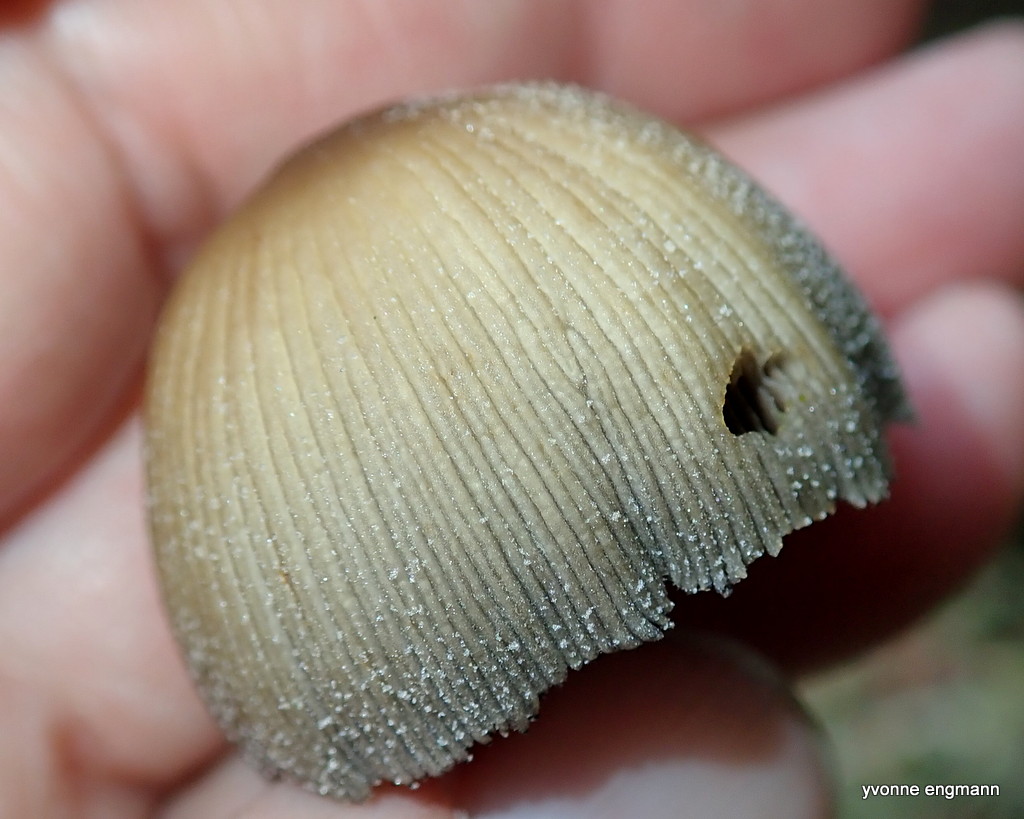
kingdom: Fungi
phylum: Basidiomycota
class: Agaricomycetes
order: Agaricales
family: Psathyrellaceae
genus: Coprinellus
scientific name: Coprinellus micaceus
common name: glimmer-blækhat
